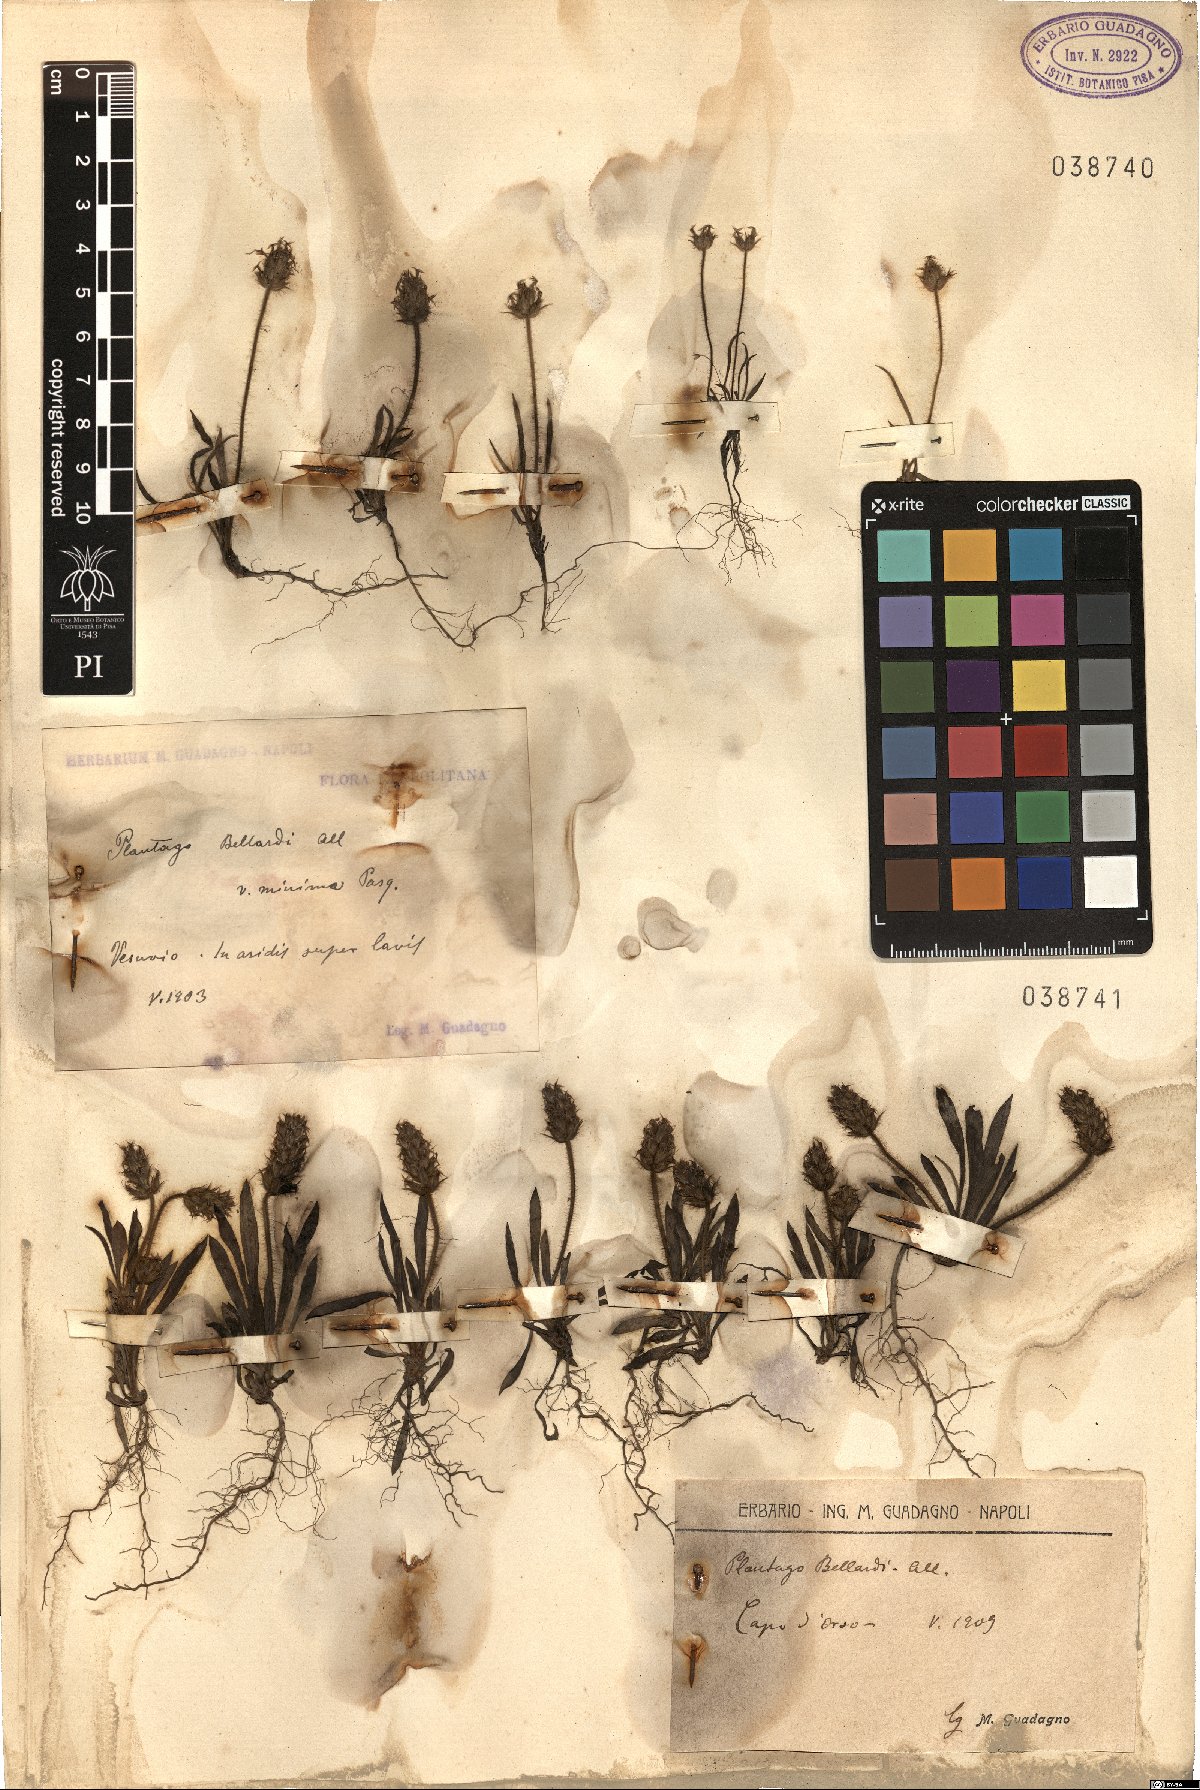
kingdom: Plantae
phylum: Tracheophyta
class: Magnoliopsida
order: Lamiales
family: Plantaginaceae
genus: Plantago
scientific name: Plantago bellardii
